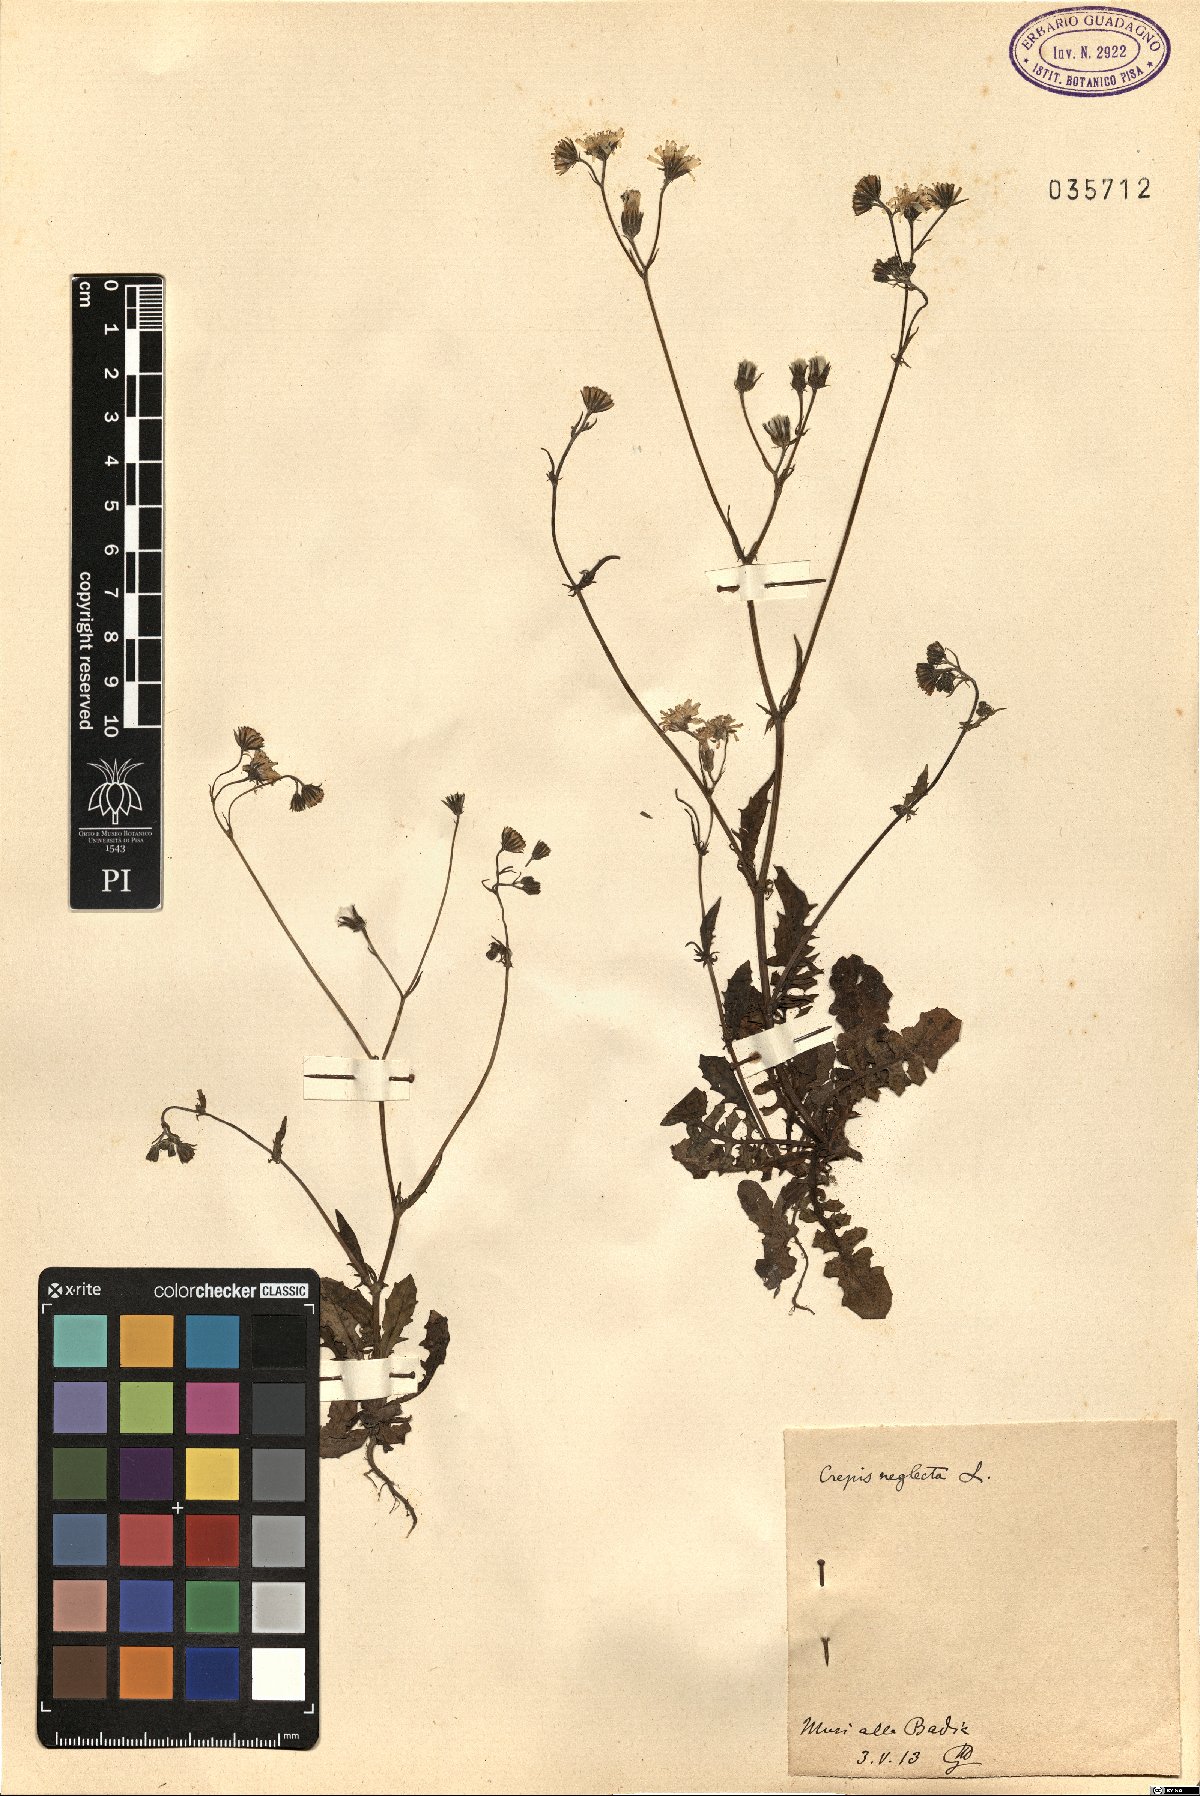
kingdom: Plantae
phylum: Tracheophyta
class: Magnoliopsida
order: Asterales
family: Asteraceae
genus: Crepis
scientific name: Crepis neglecta
